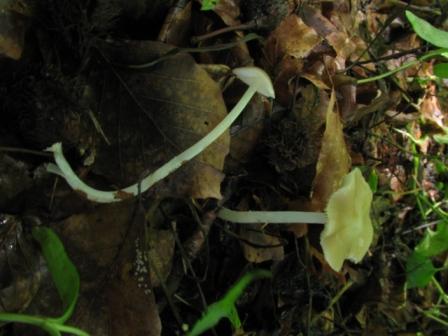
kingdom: Fungi
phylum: Basidiomycota
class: Agaricomycetes
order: Agaricales
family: Porotheleaceae
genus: Hydropodia
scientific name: Hydropodia subalpina
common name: vår-fnugfod
